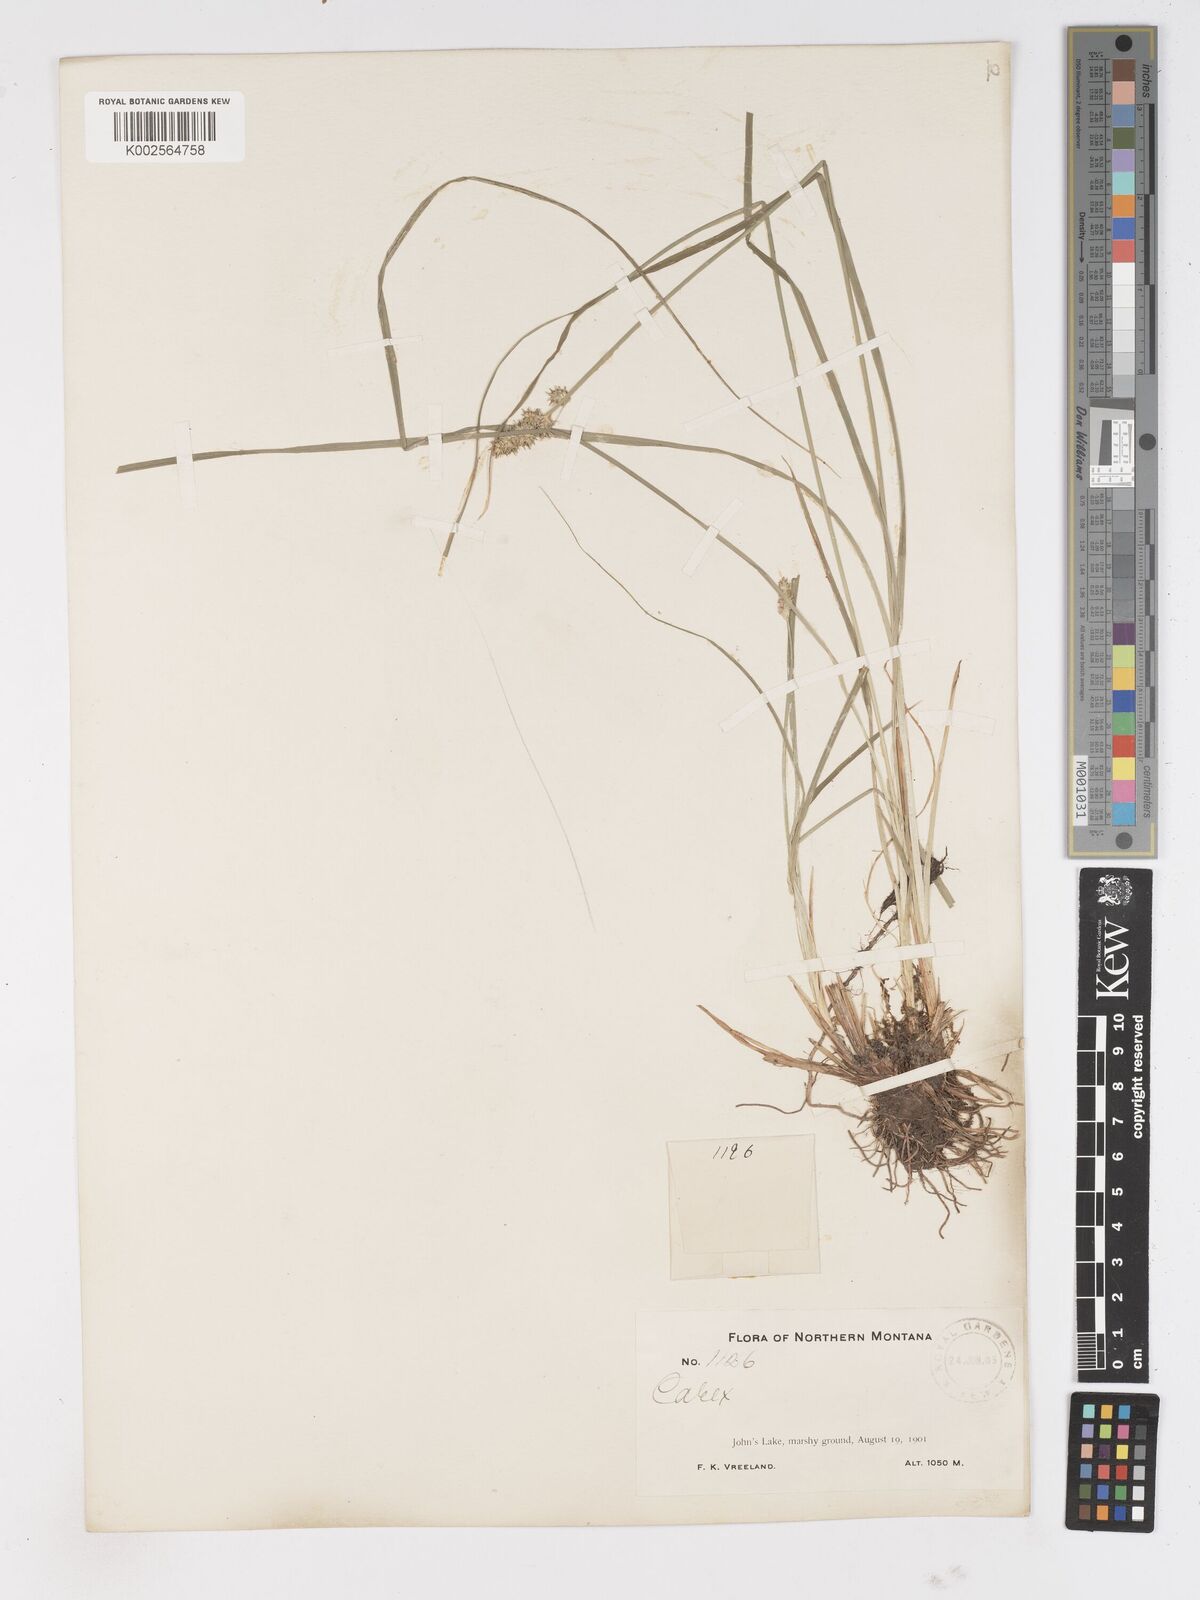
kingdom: Plantae
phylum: Tracheophyta
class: Liliopsida
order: Poales
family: Cyperaceae
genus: Carex
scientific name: Carex
